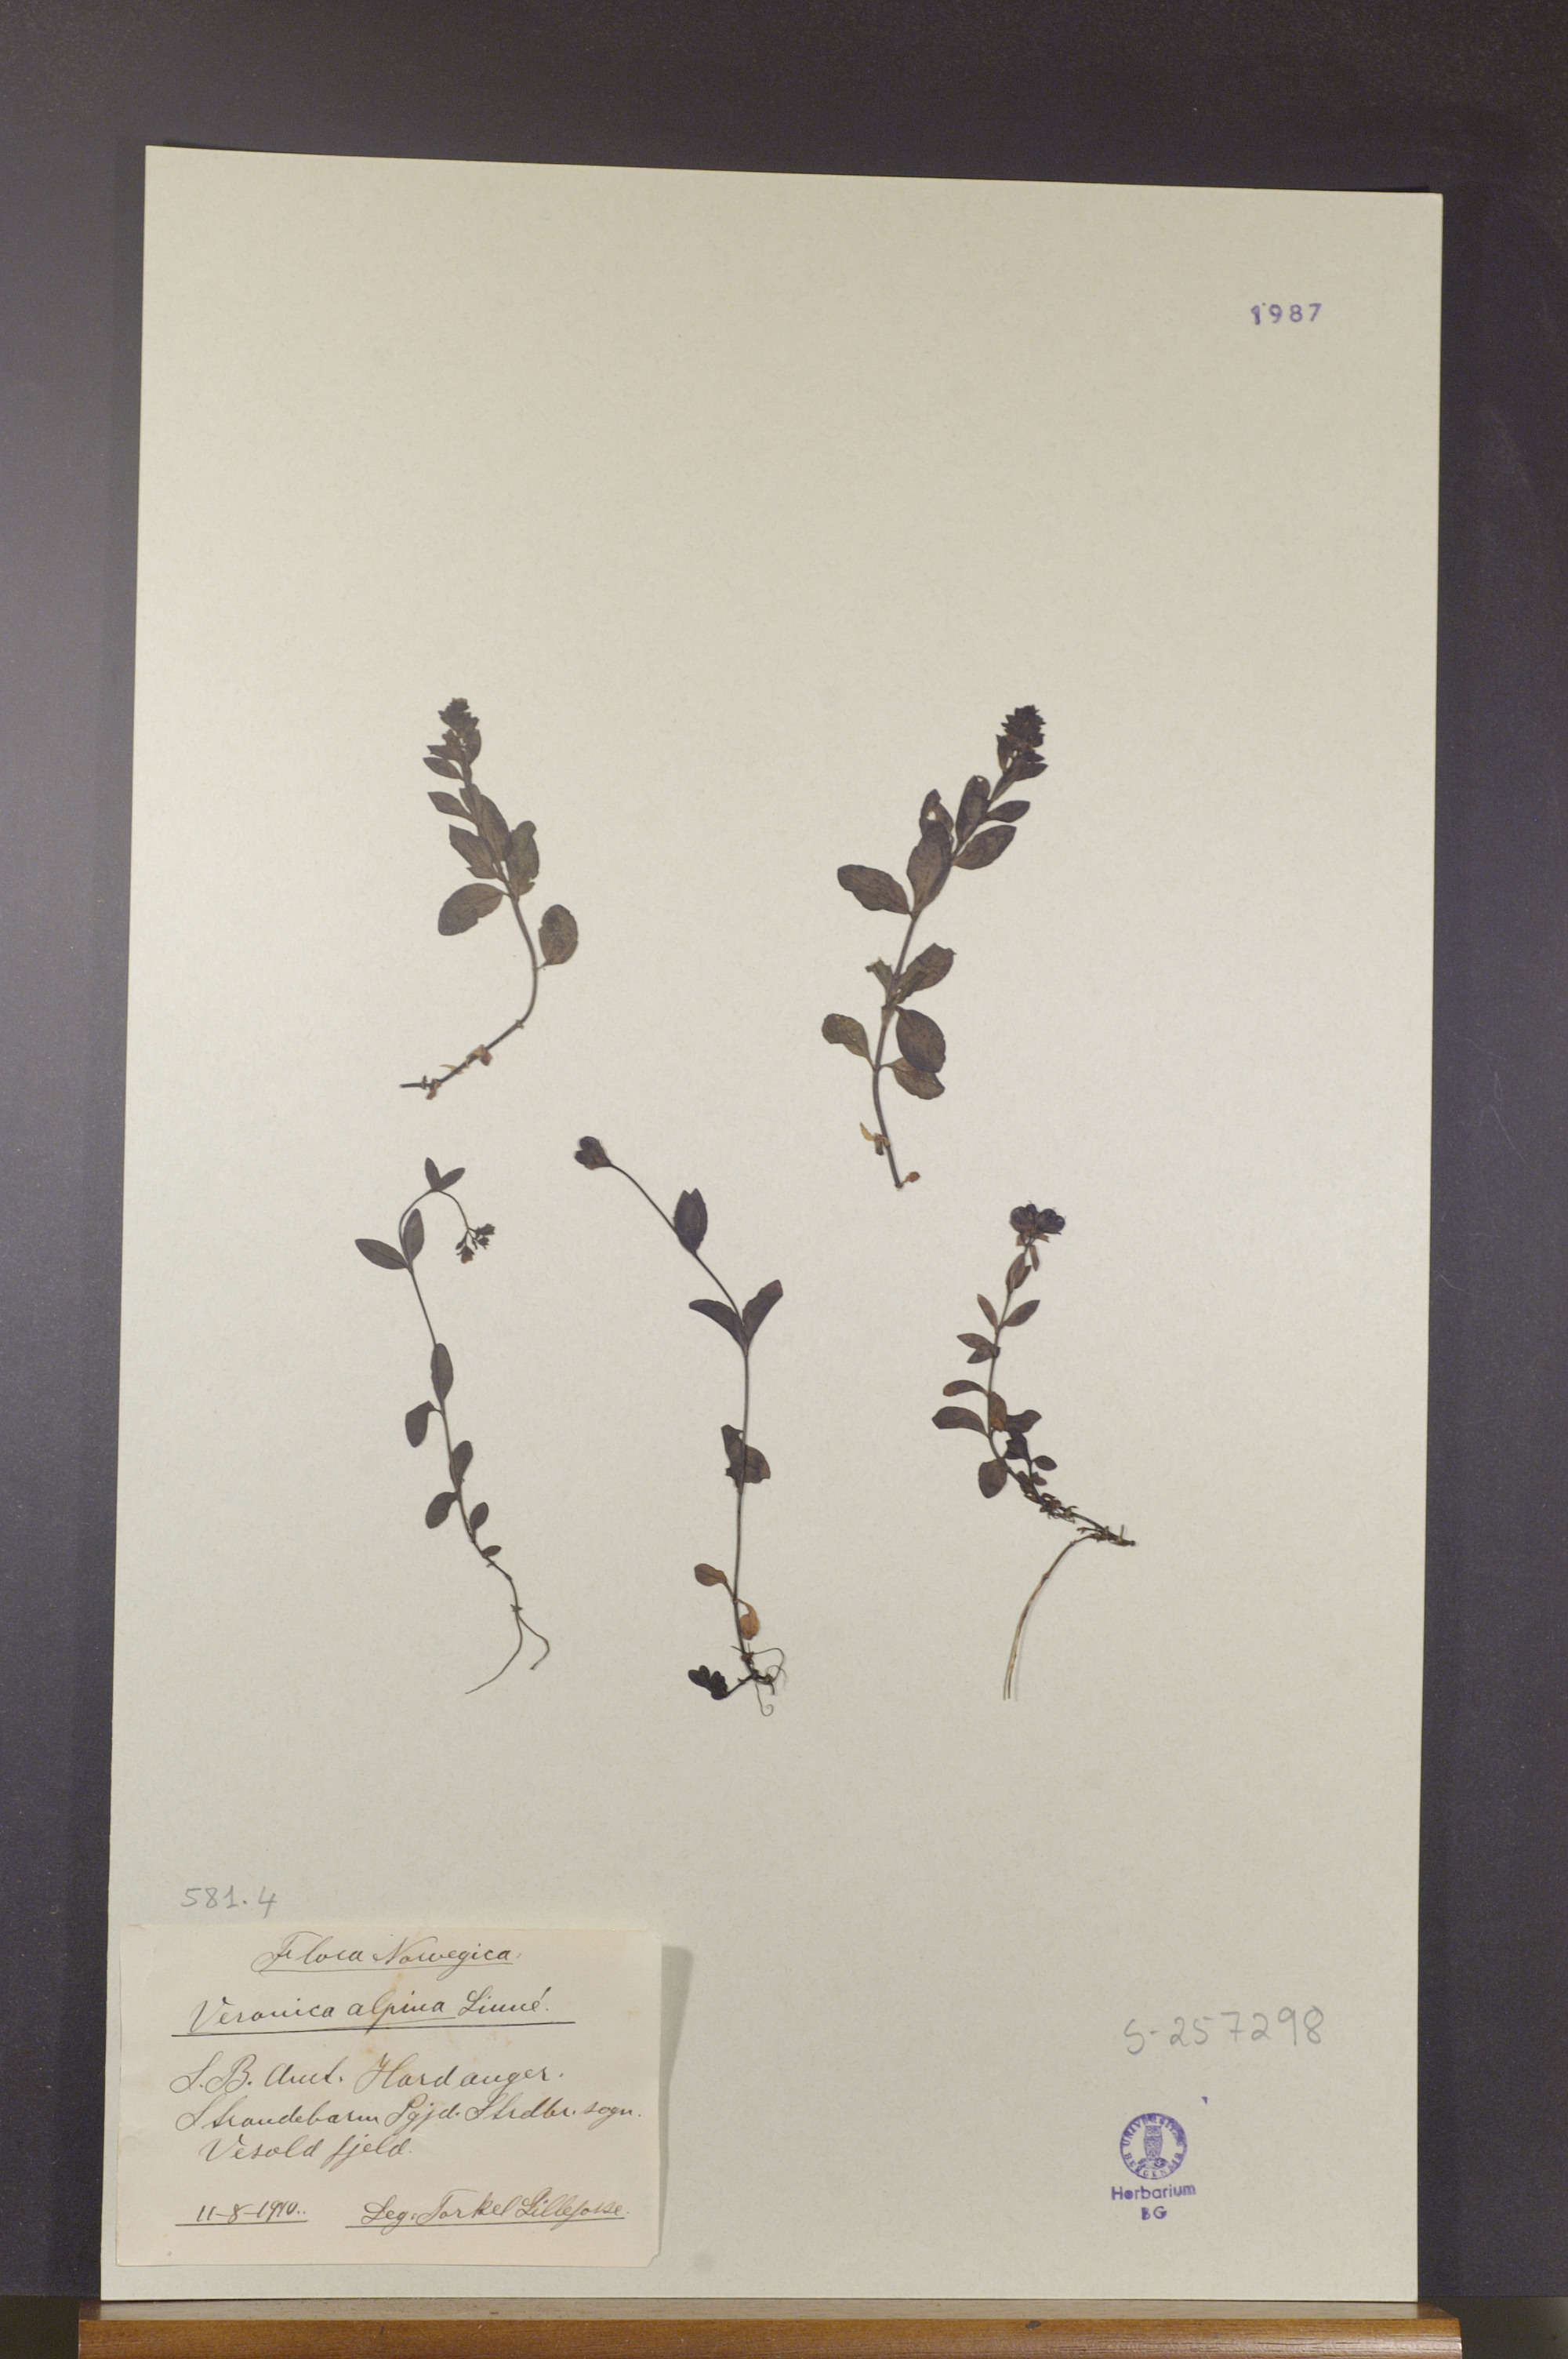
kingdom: Plantae
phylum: Tracheophyta
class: Magnoliopsida
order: Lamiales
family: Plantaginaceae
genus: Veronica
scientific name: Veronica alpina
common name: Alpine speedwell
